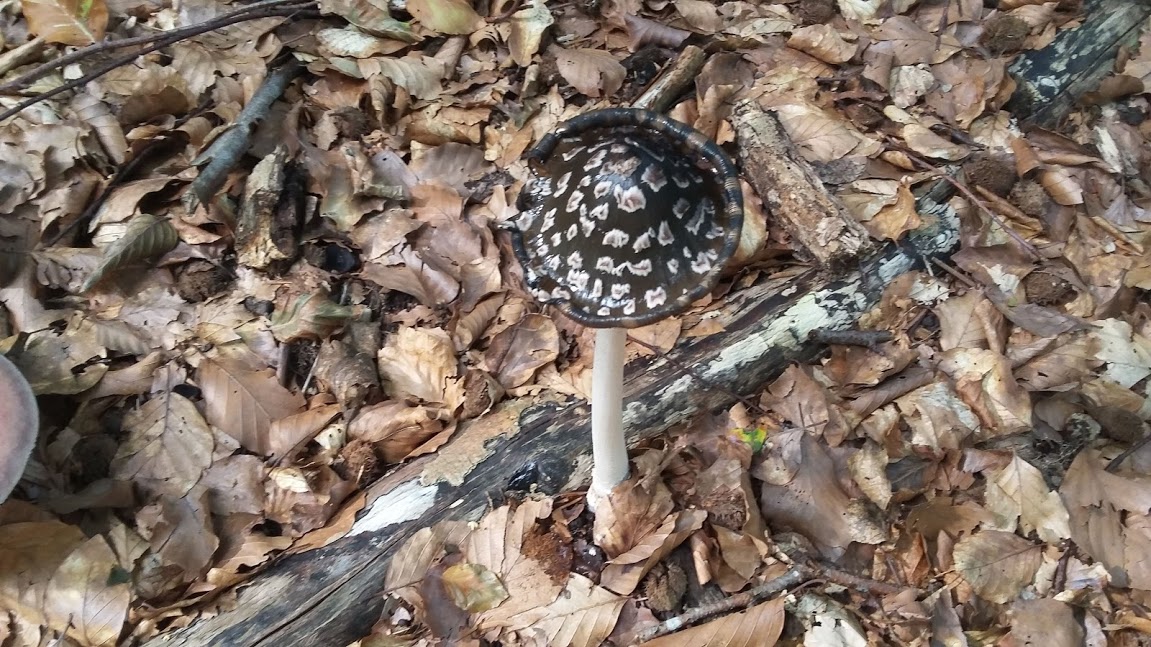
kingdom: Fungi
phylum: Basidiomycota
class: Agaricomycetes
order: Agaricales
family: Psathyrellaceae
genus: Coprinopsis
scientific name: Coprinopsis picacea
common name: skade-blækhat
